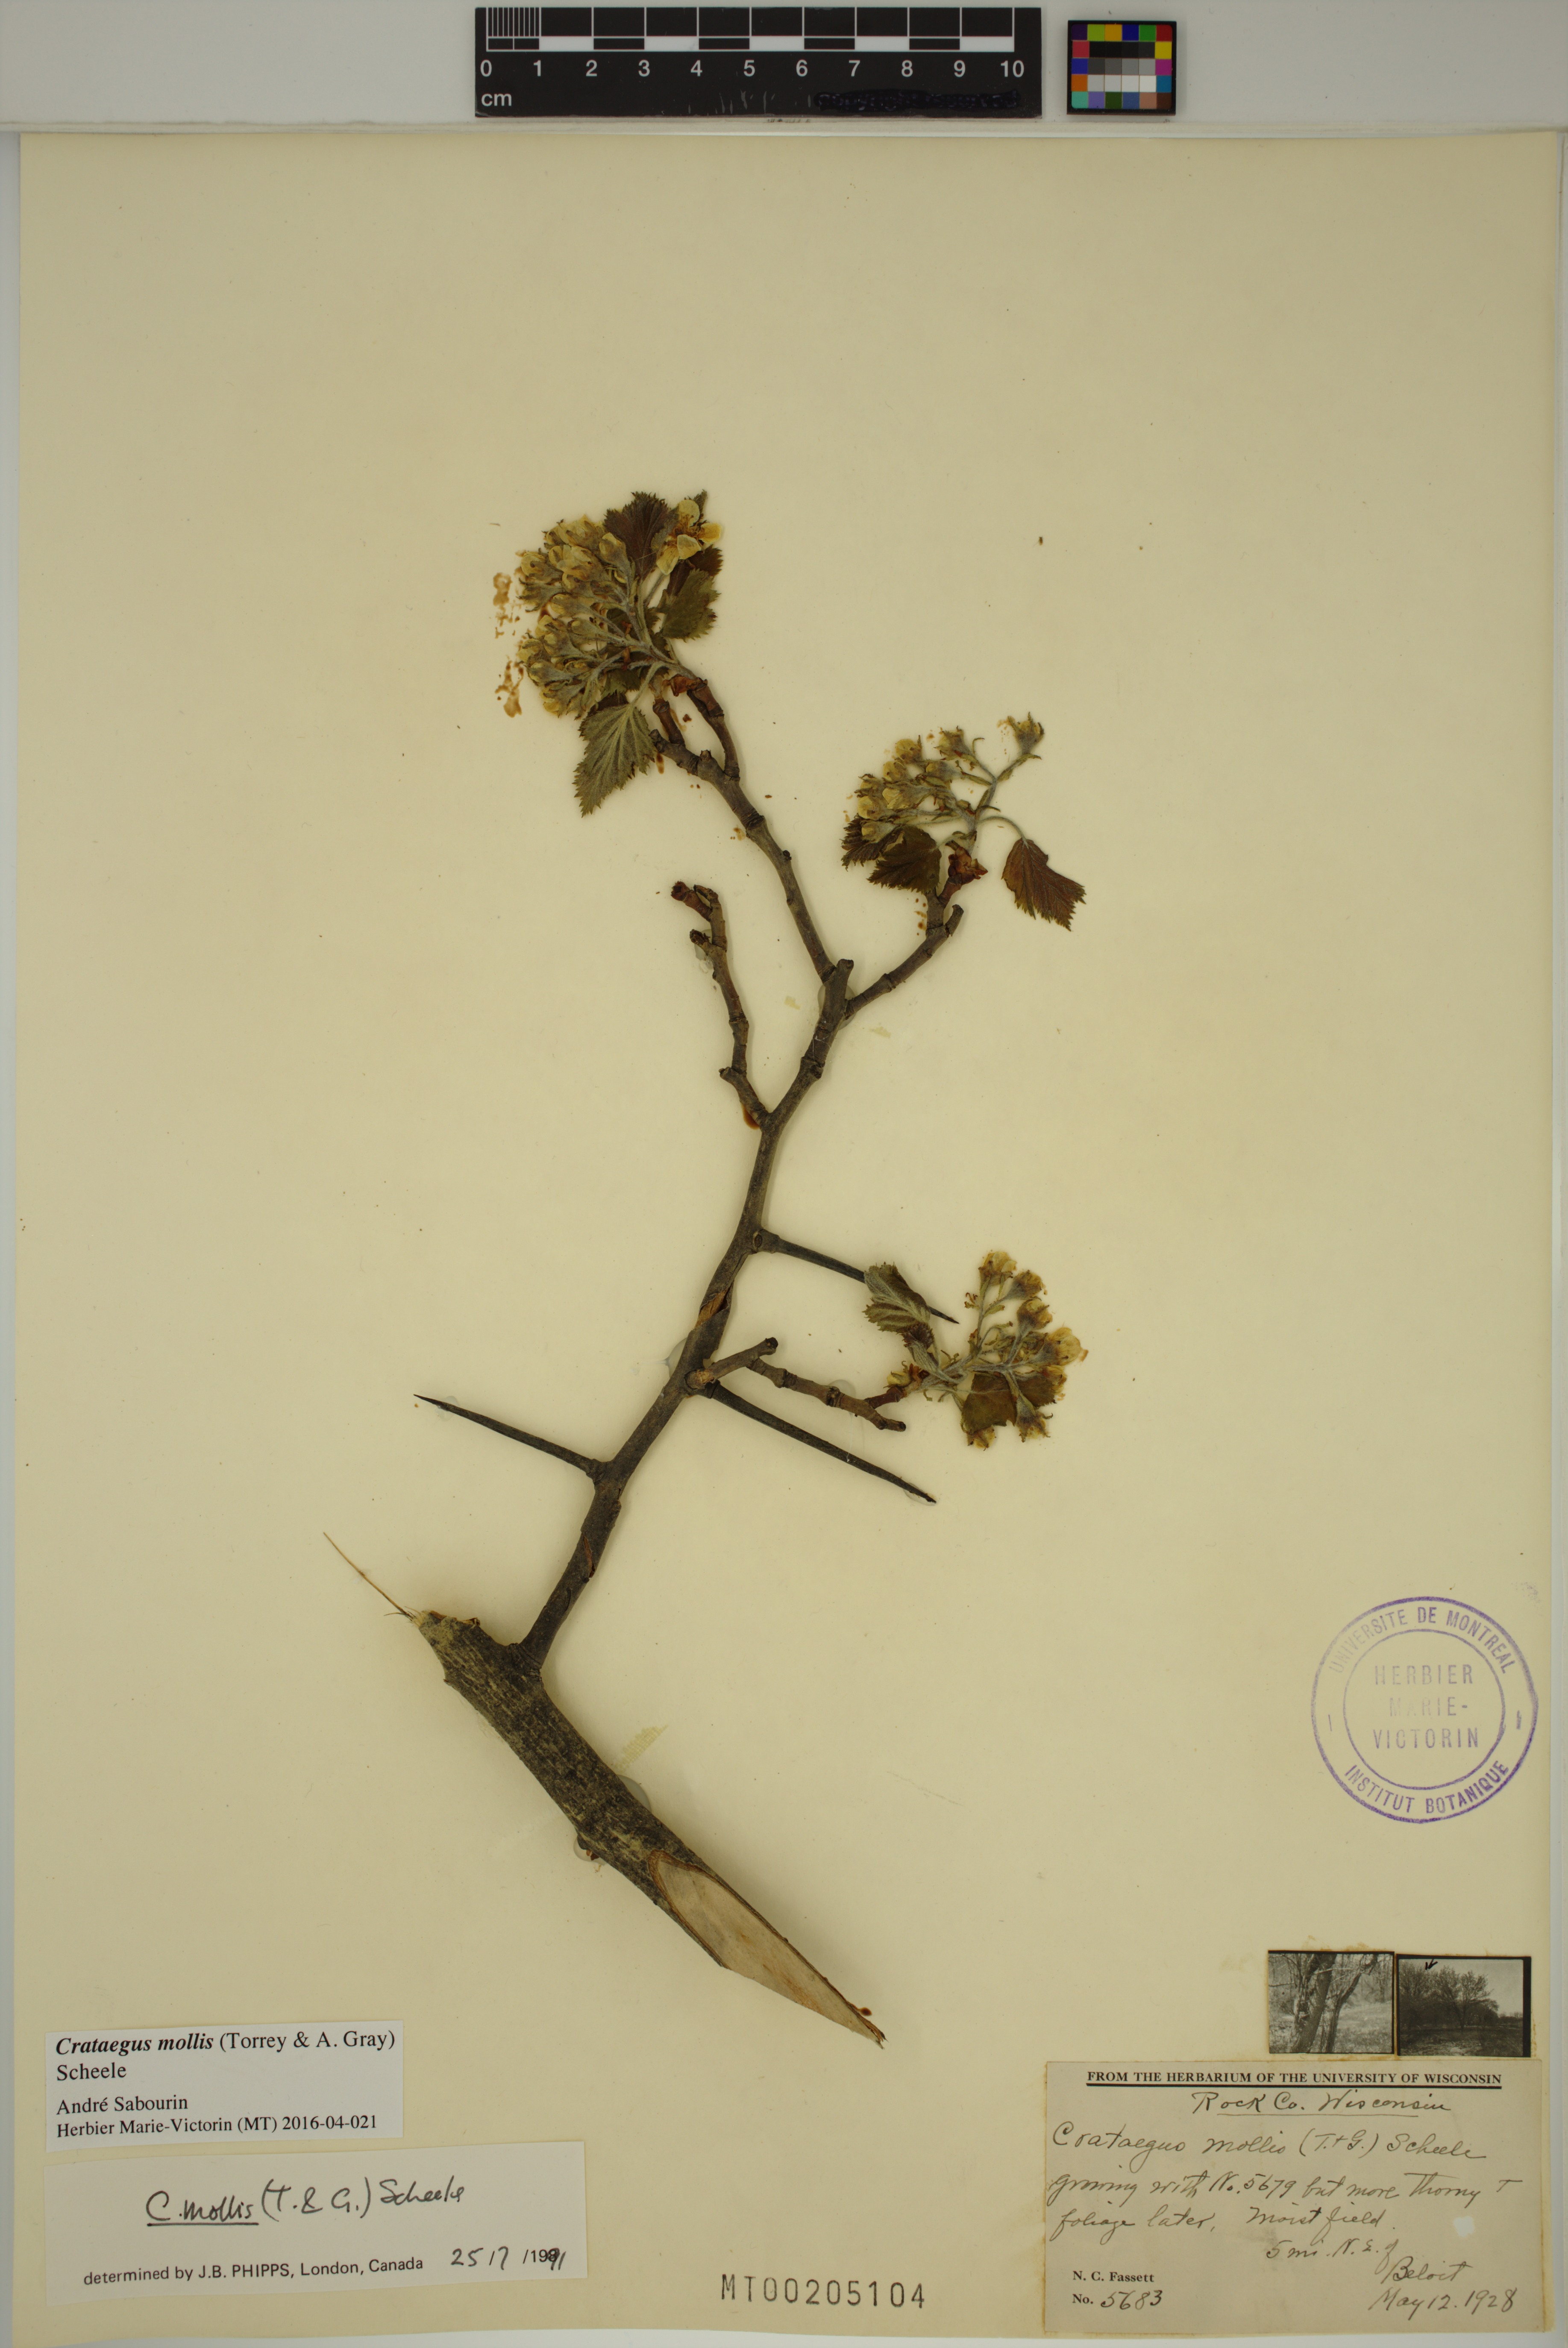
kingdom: Plantae
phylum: Tracheophyta
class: Magnoliopsida
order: Rosales
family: Rosaceae
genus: Crataegus
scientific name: Crataegus mollis
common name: Downy hawthorn
